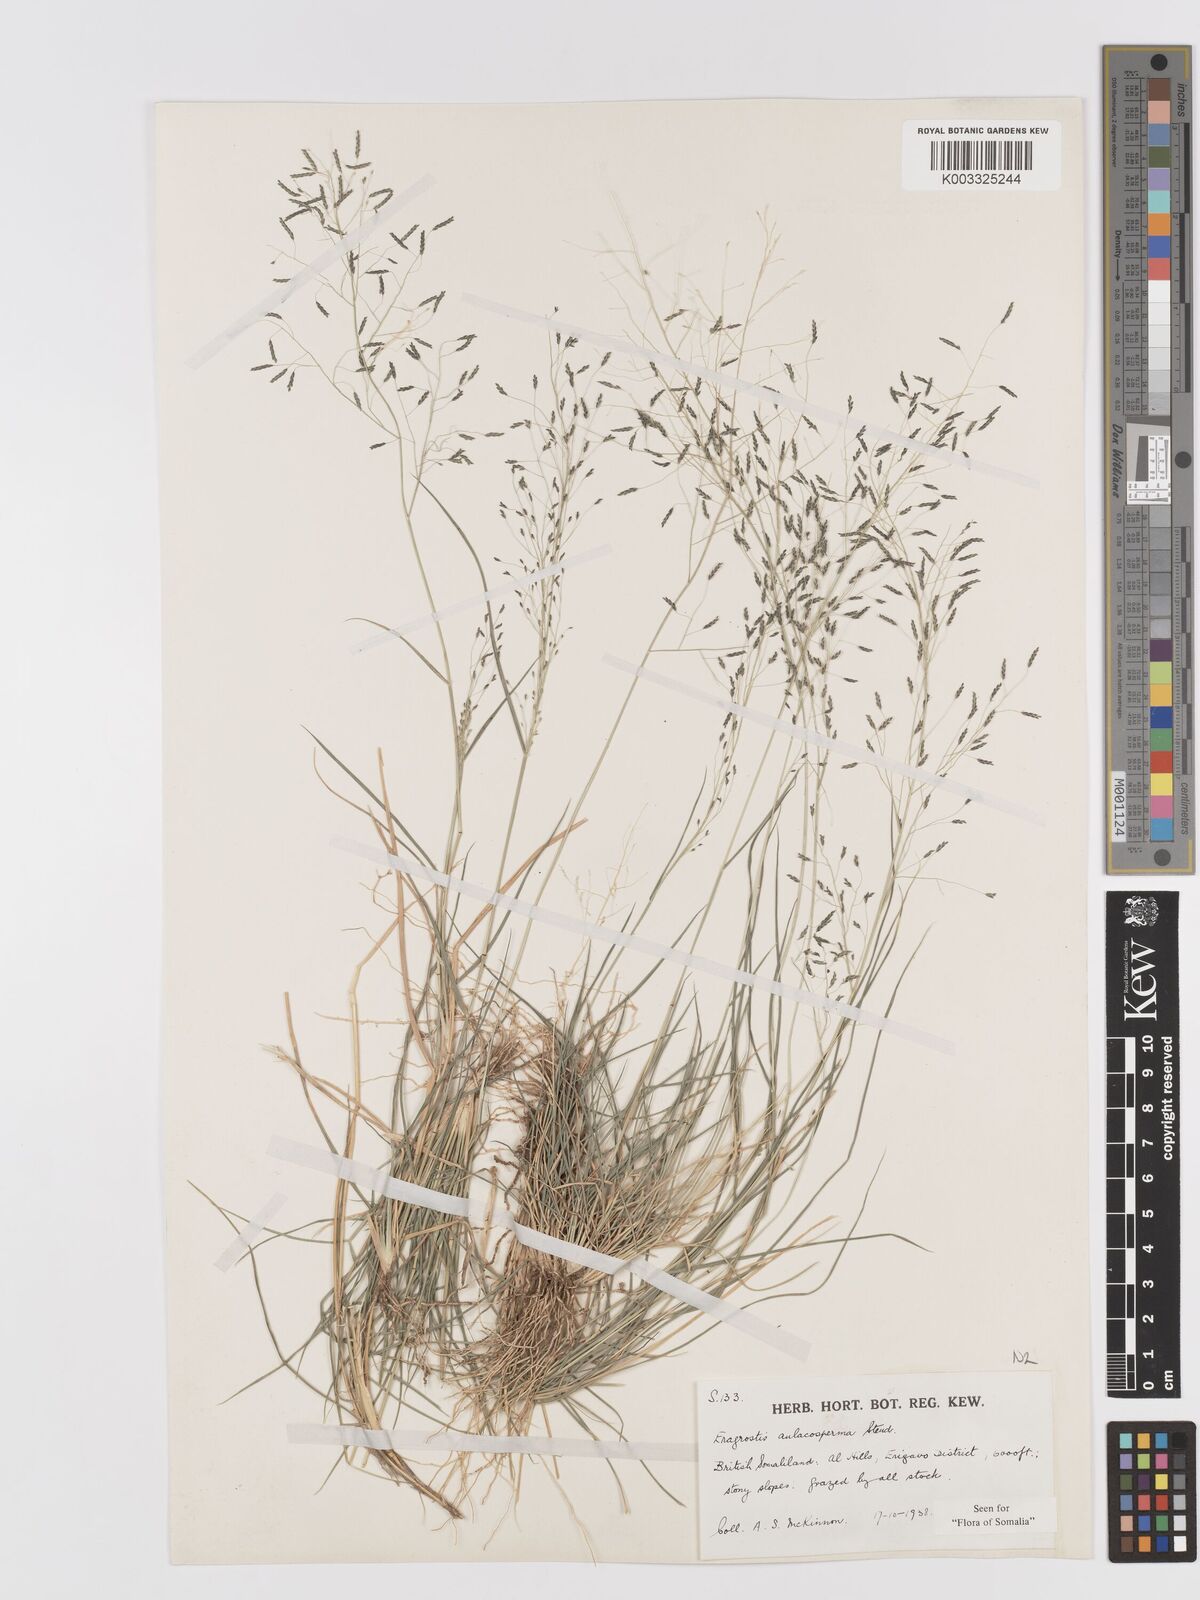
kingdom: Plantae
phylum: Tracheophyta
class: Liliopsida
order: Poales
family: Poaceae
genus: Eragrostis
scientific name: Eragrostis papposa
